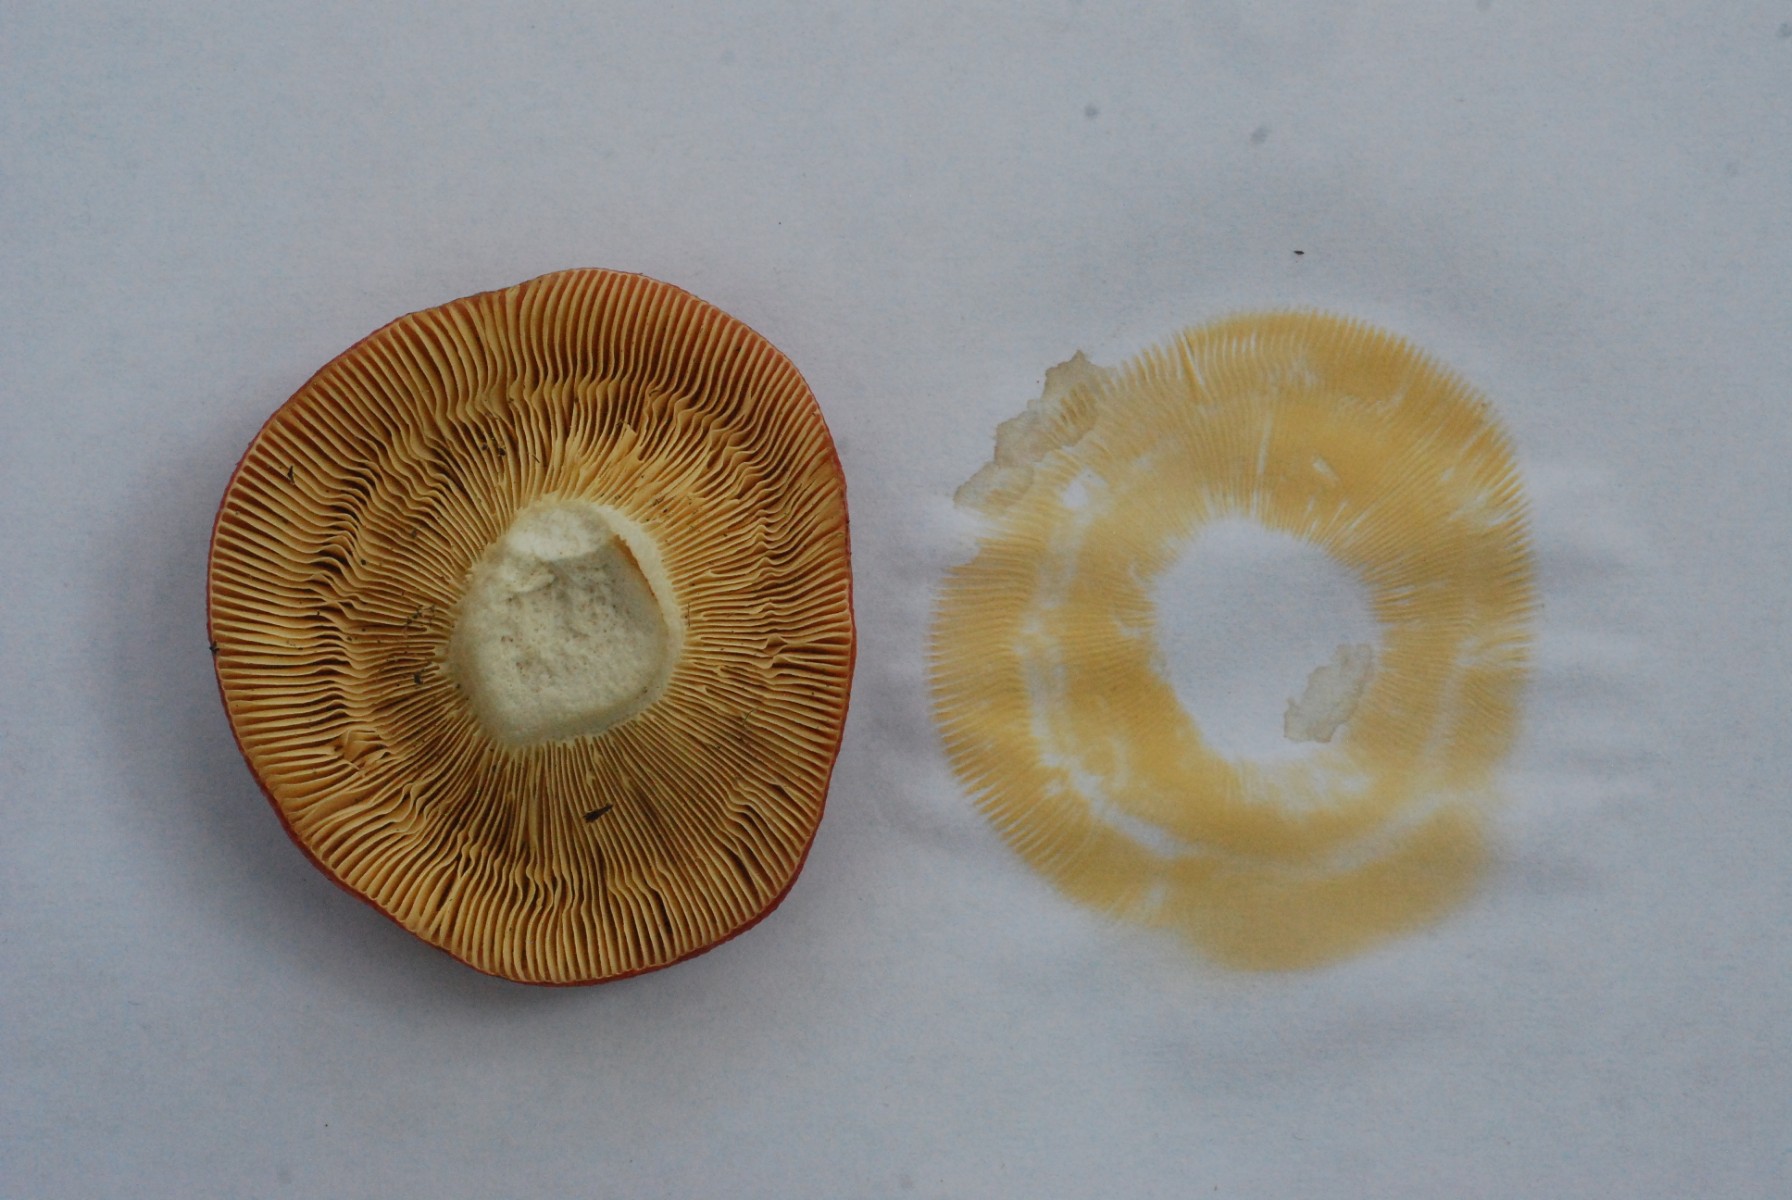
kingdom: Fungi
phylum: Basidiomycota
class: Agaricomycetes
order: Russulales
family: Russulaceae
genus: Russula
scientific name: Russula depallens
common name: falmende skørhat
